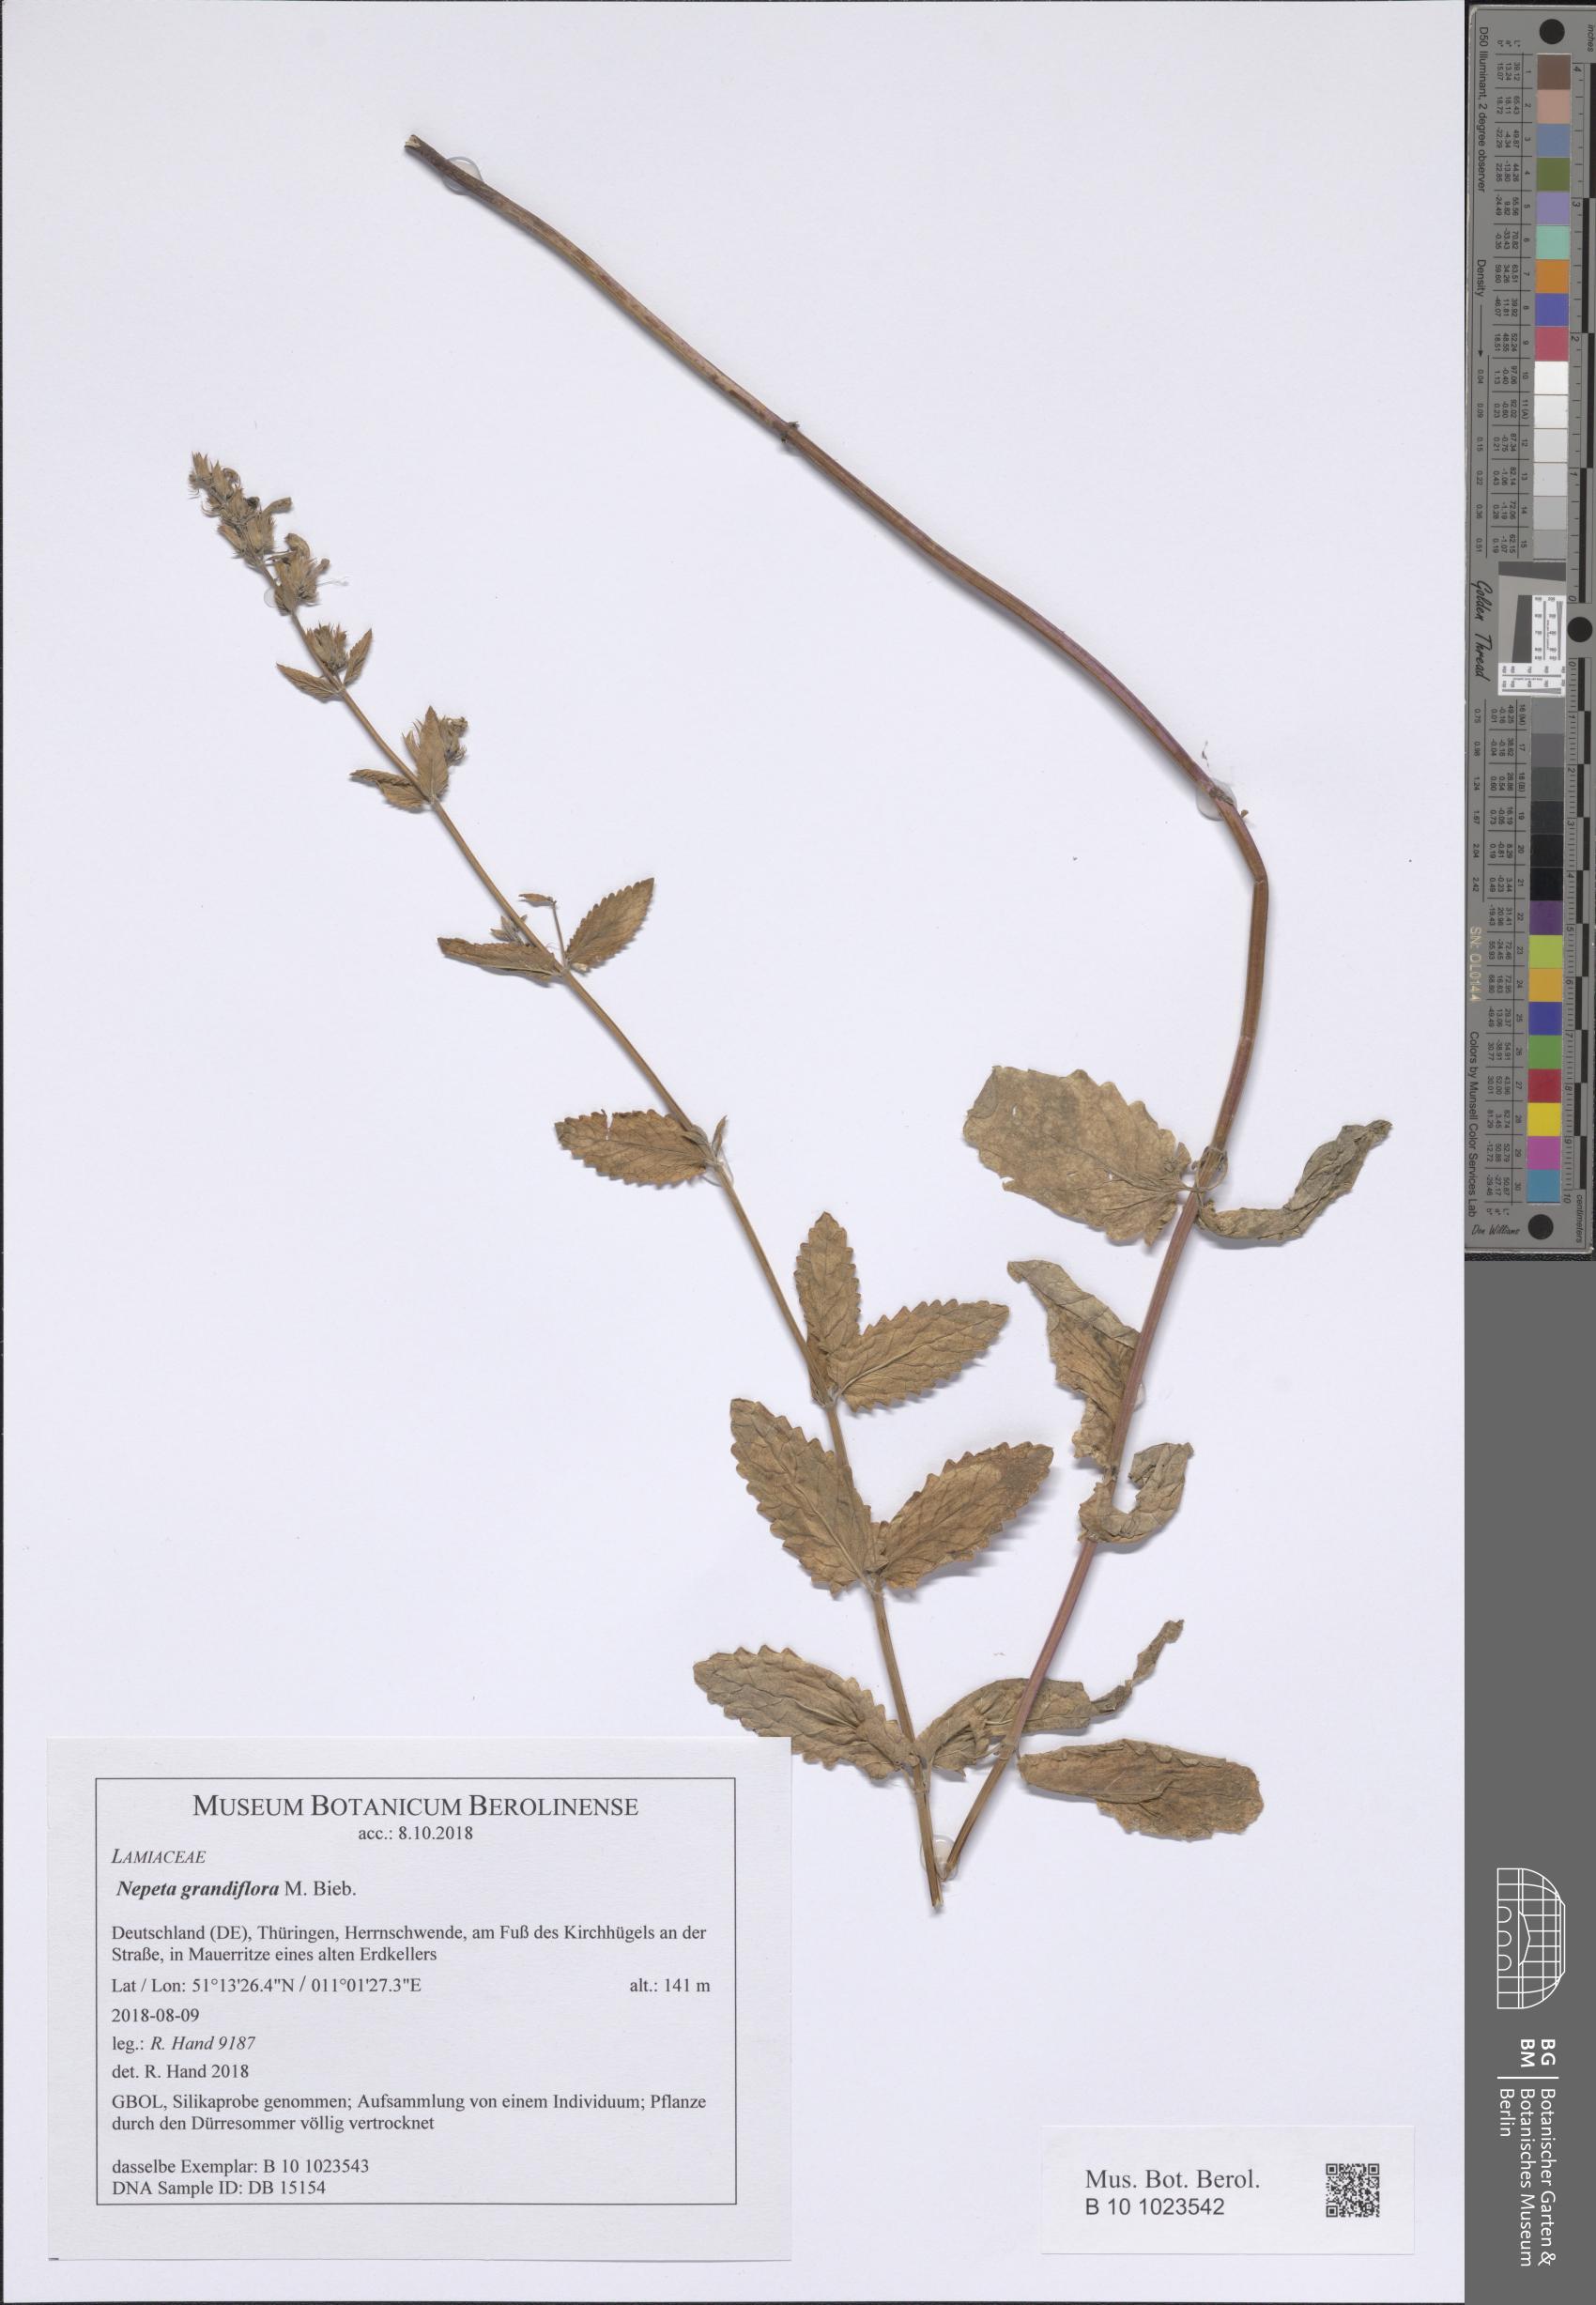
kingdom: Plantae
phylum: Tracheophyta
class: Magnoliopsida
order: Lamiales
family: Lamiaceae
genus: Nepeta
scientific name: Nepeta grandiflora
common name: Caucasus catmint
